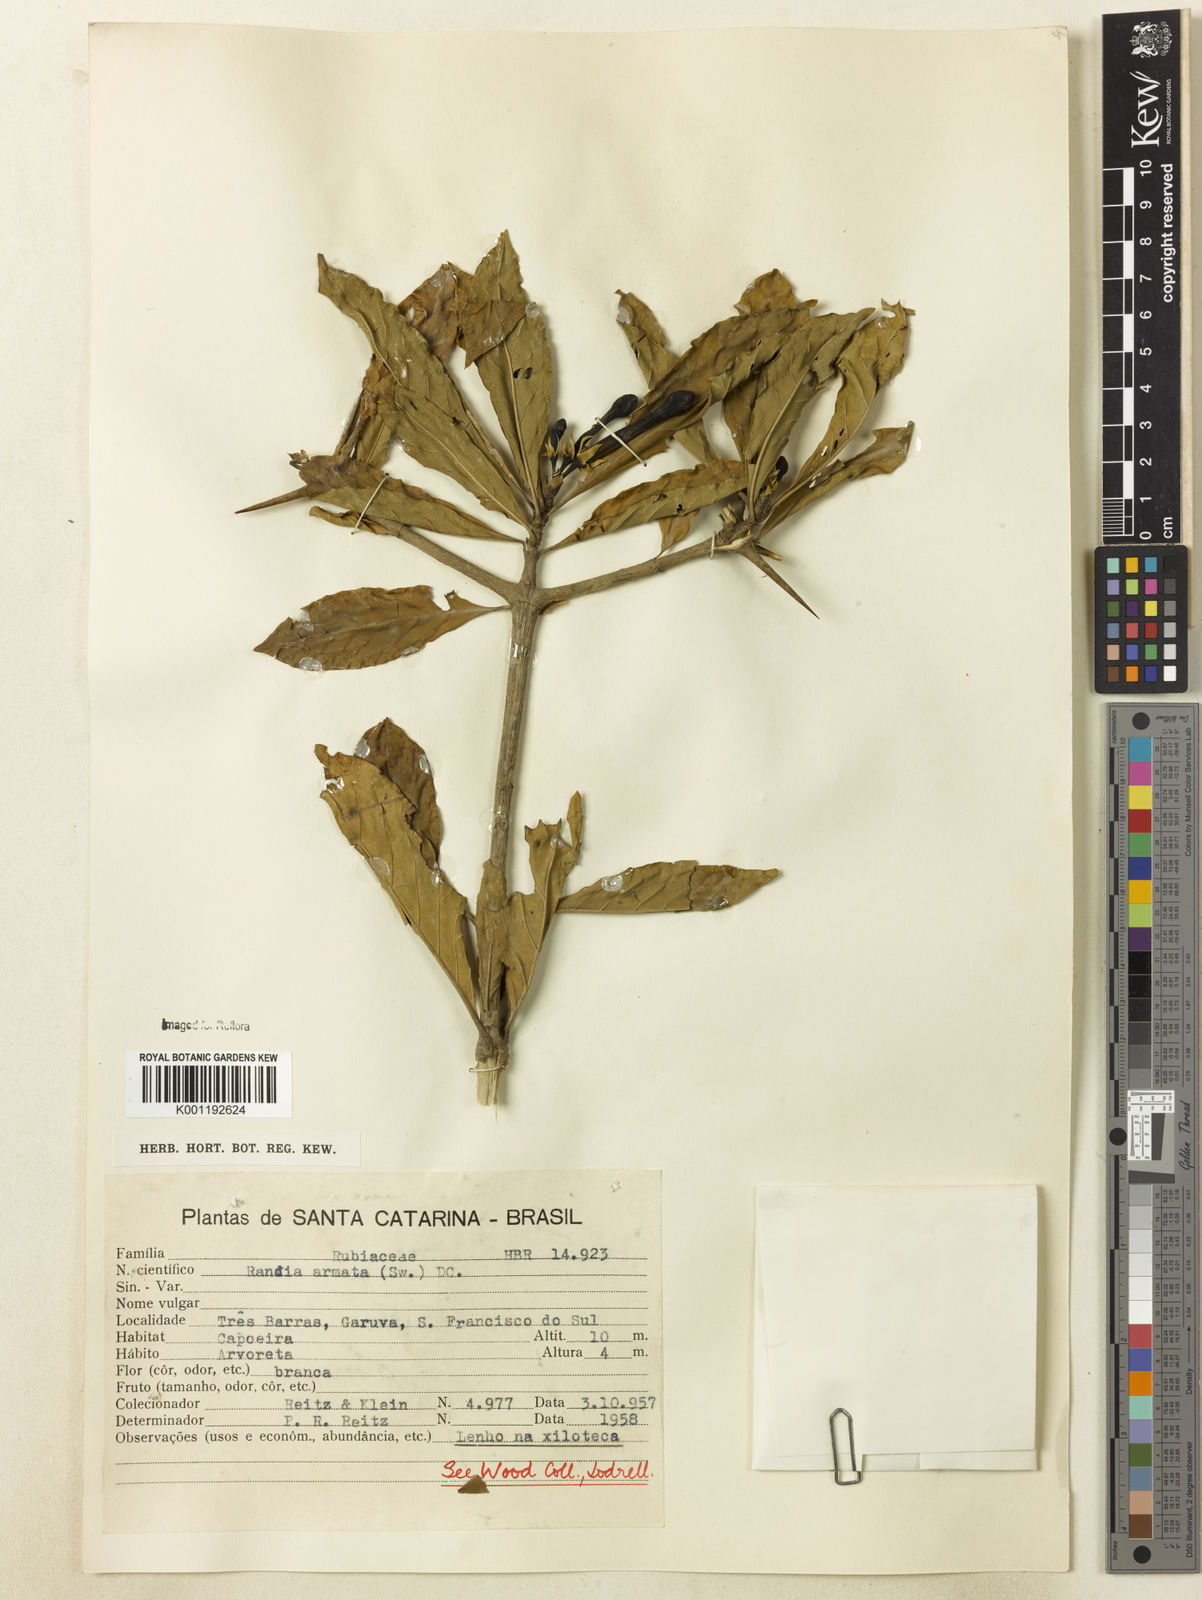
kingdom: Plantae
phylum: Tracheophyta
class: Magnoliopsida
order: Gentianales
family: Rubiaceae
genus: Randia
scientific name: Randia armata
